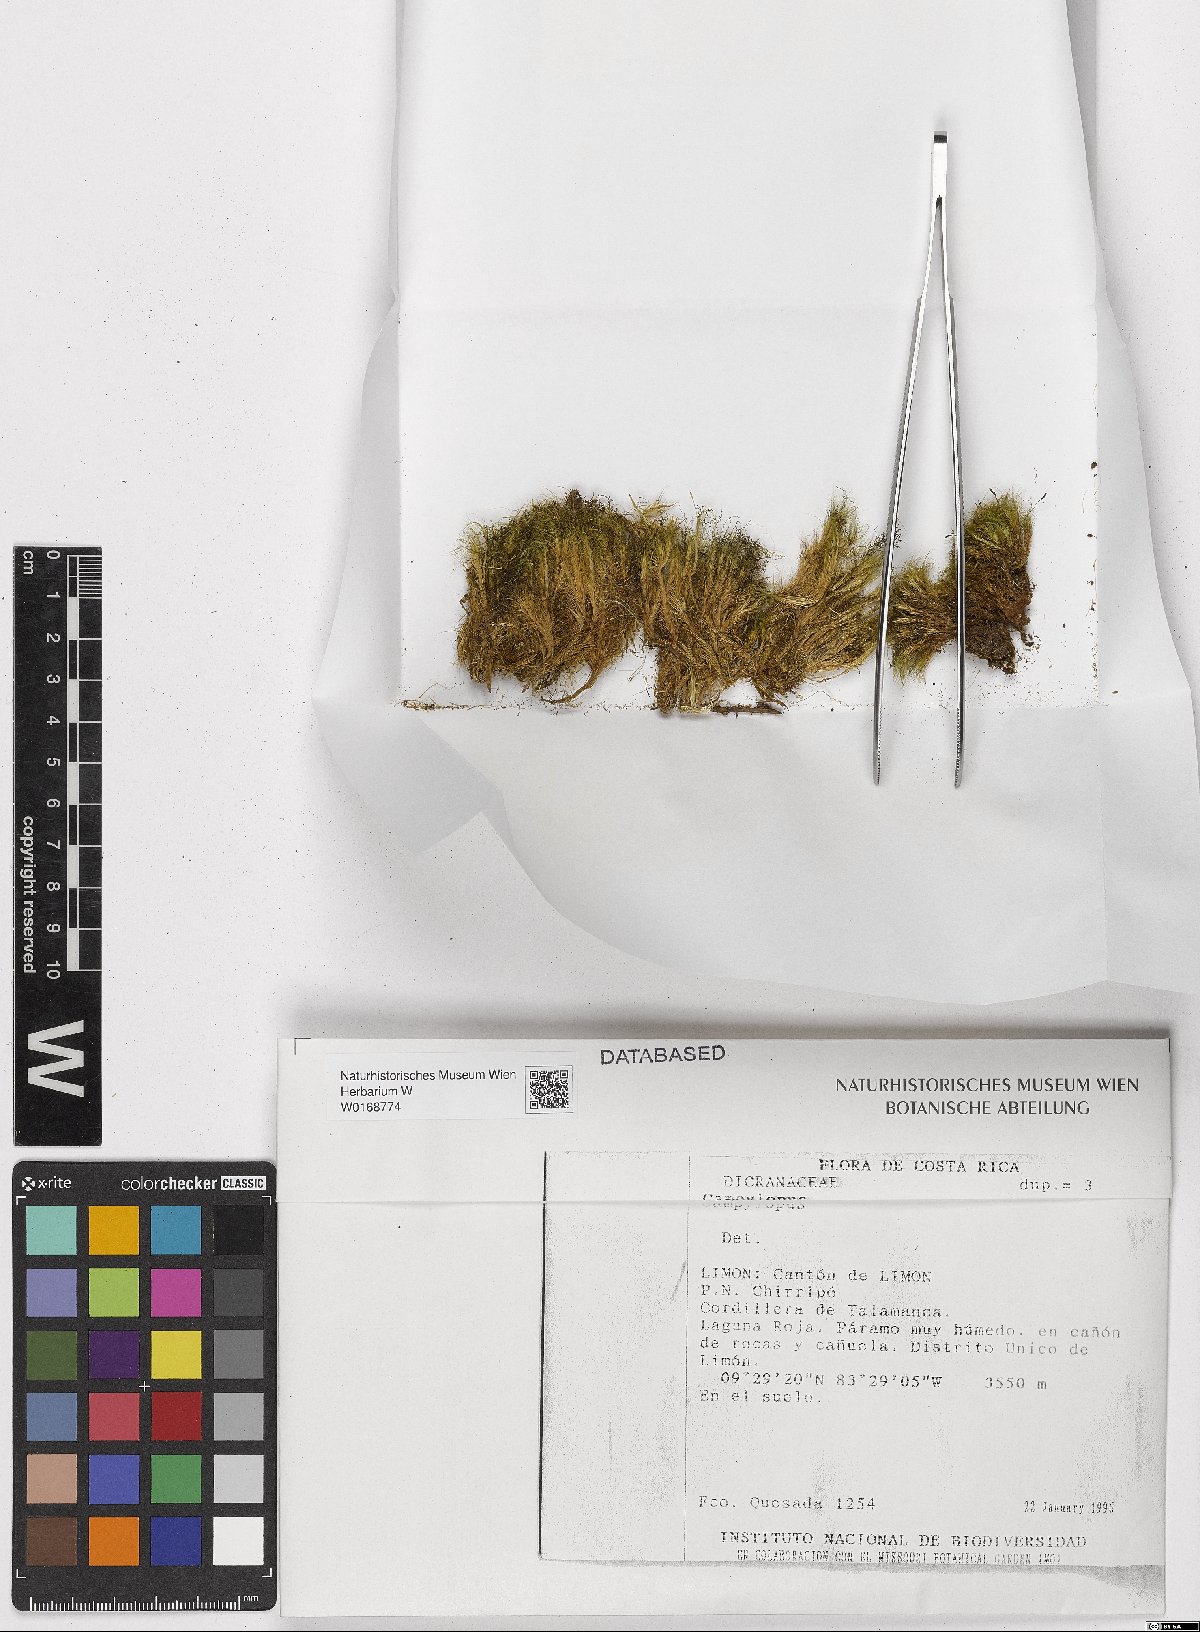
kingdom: Plantae
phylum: Bryophyta
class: Bryopsida
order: Dicranales
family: Leucobryaceae
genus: Campylopus
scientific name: Campylopus
